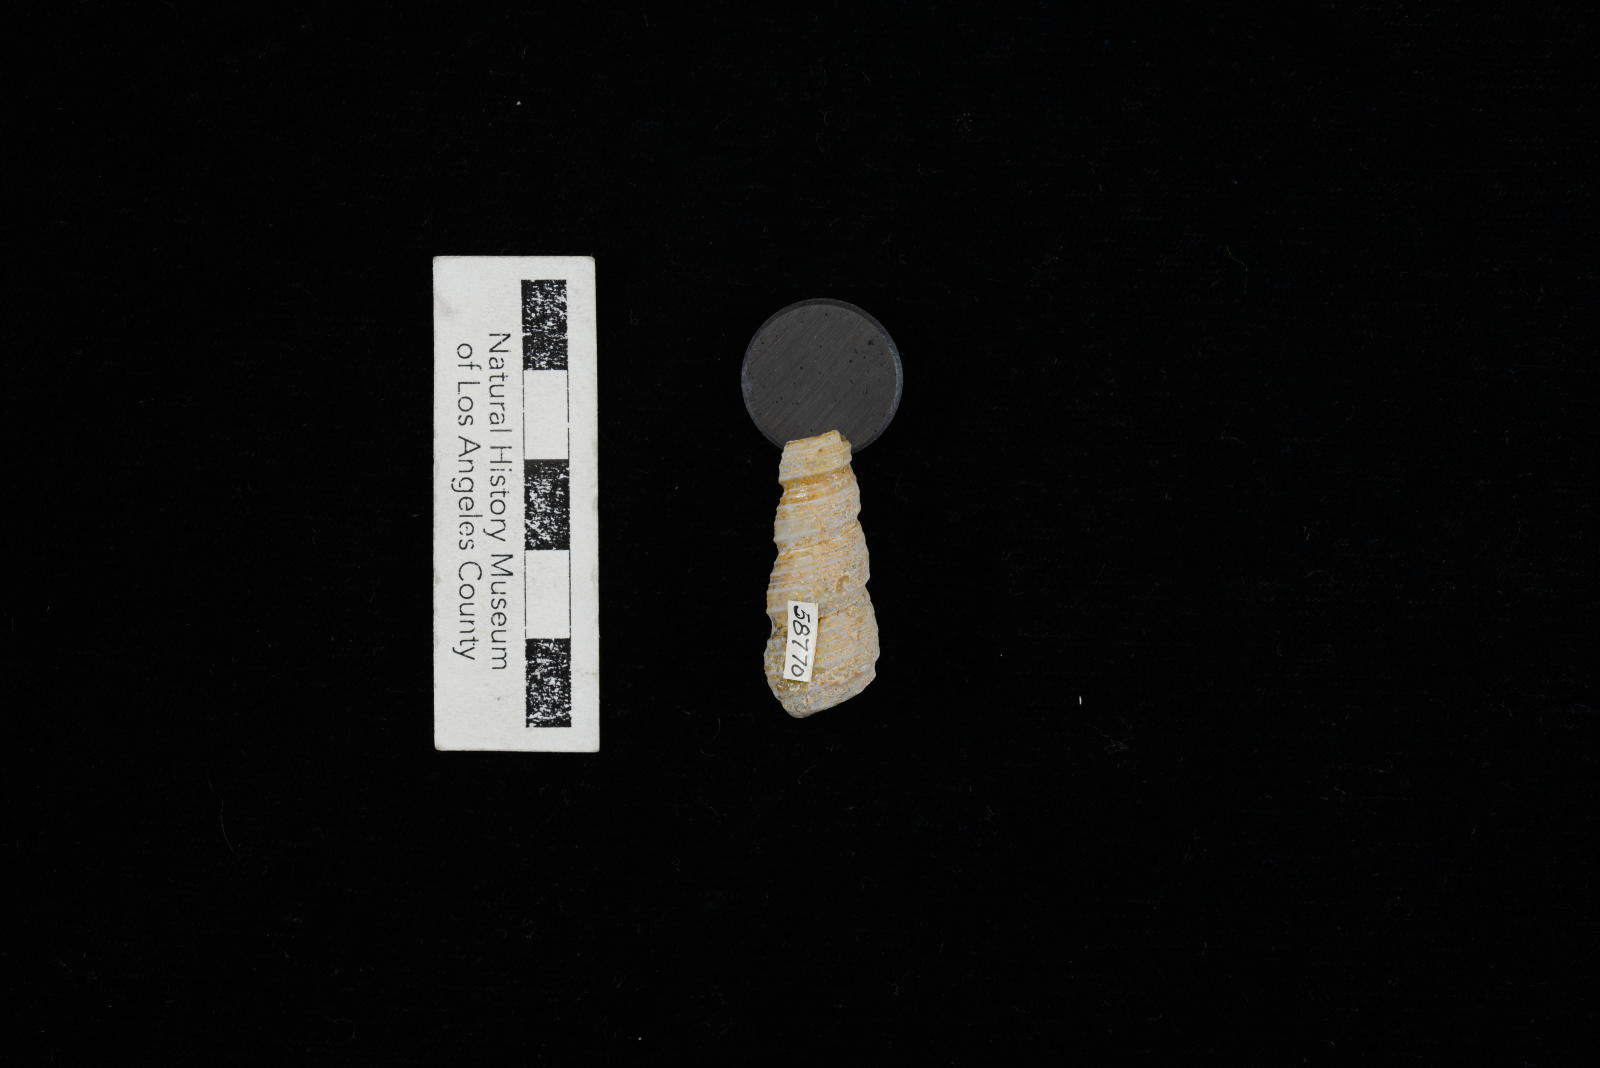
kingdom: Animalia
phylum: Mollusca
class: Gastropoda
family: Turritellidae
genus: Turritella
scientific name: Turritella
